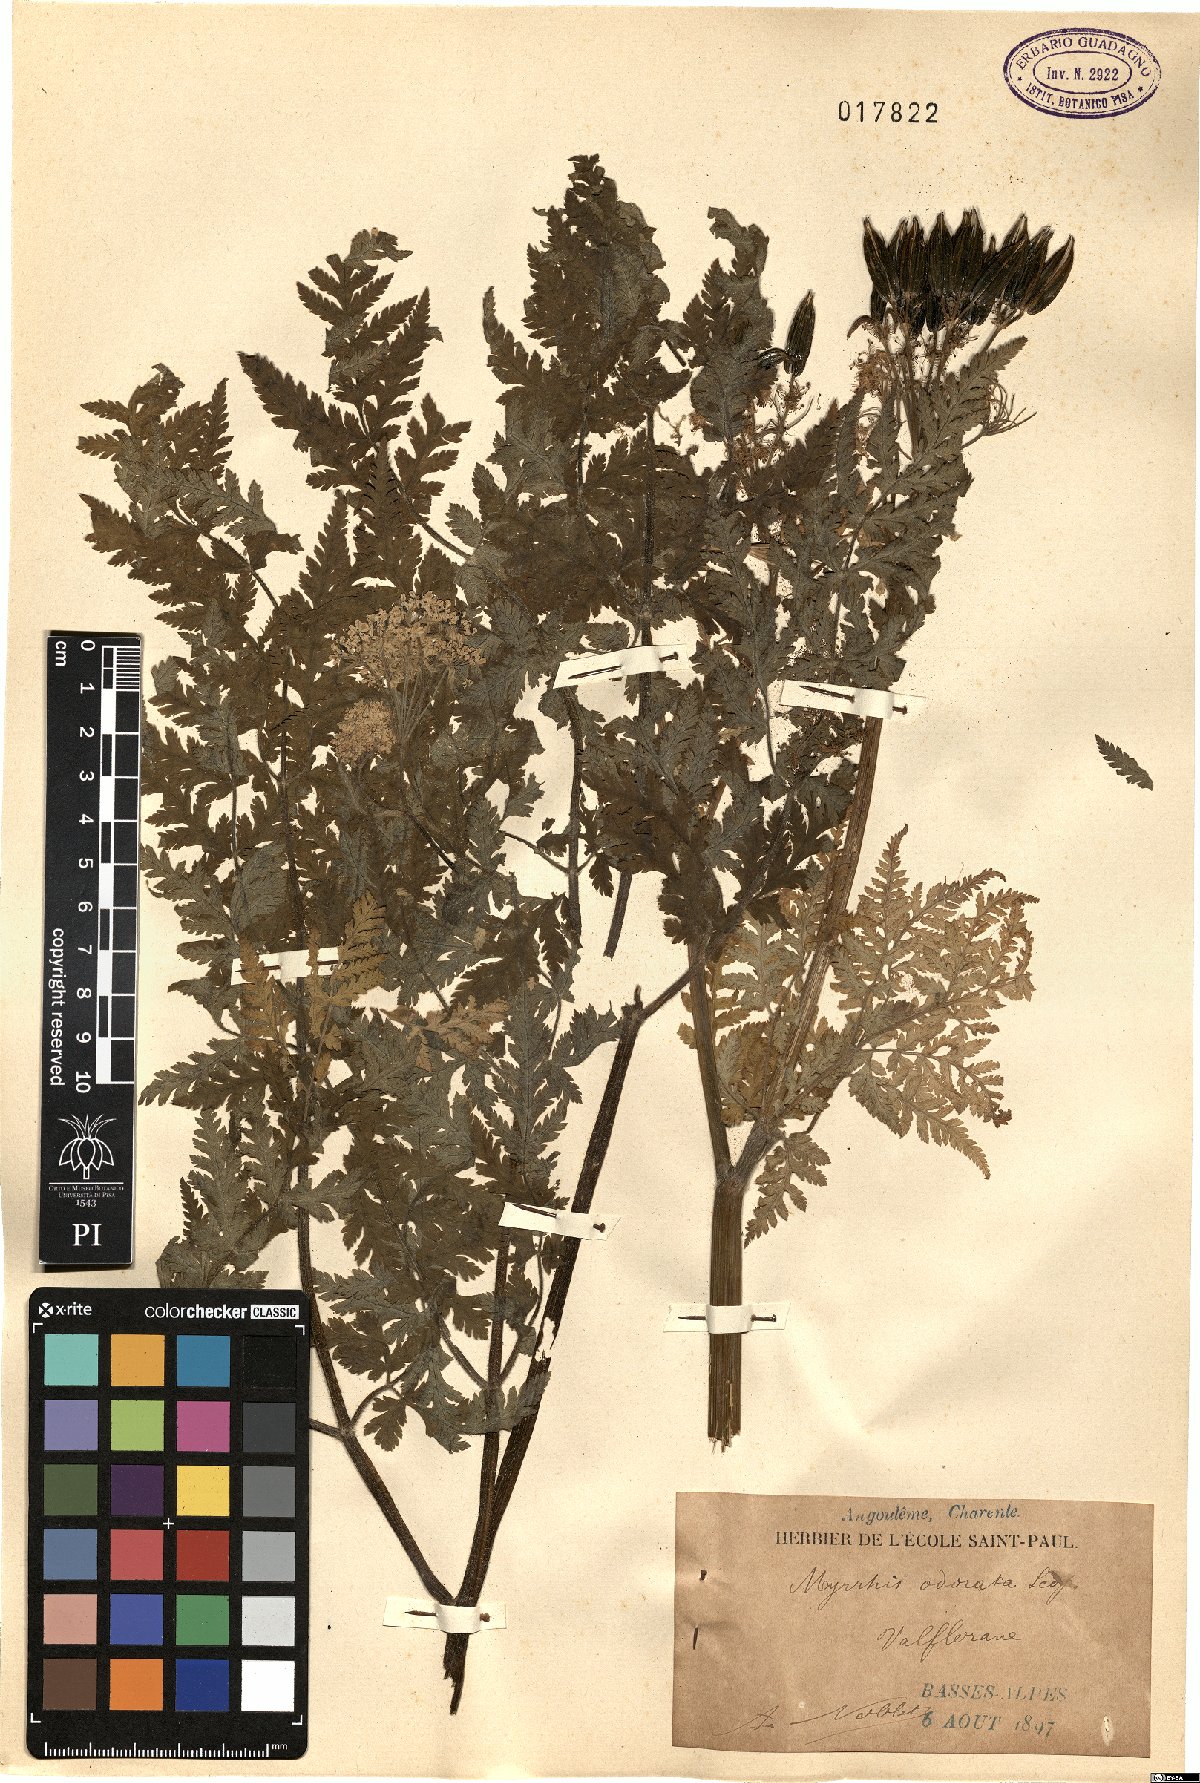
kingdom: Plantae
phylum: Tracheophyta
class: Magnoliopsida
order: Apiales
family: Apiaceae
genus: Myrrhis
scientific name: Myrrhis odorata
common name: Sweet cicely
